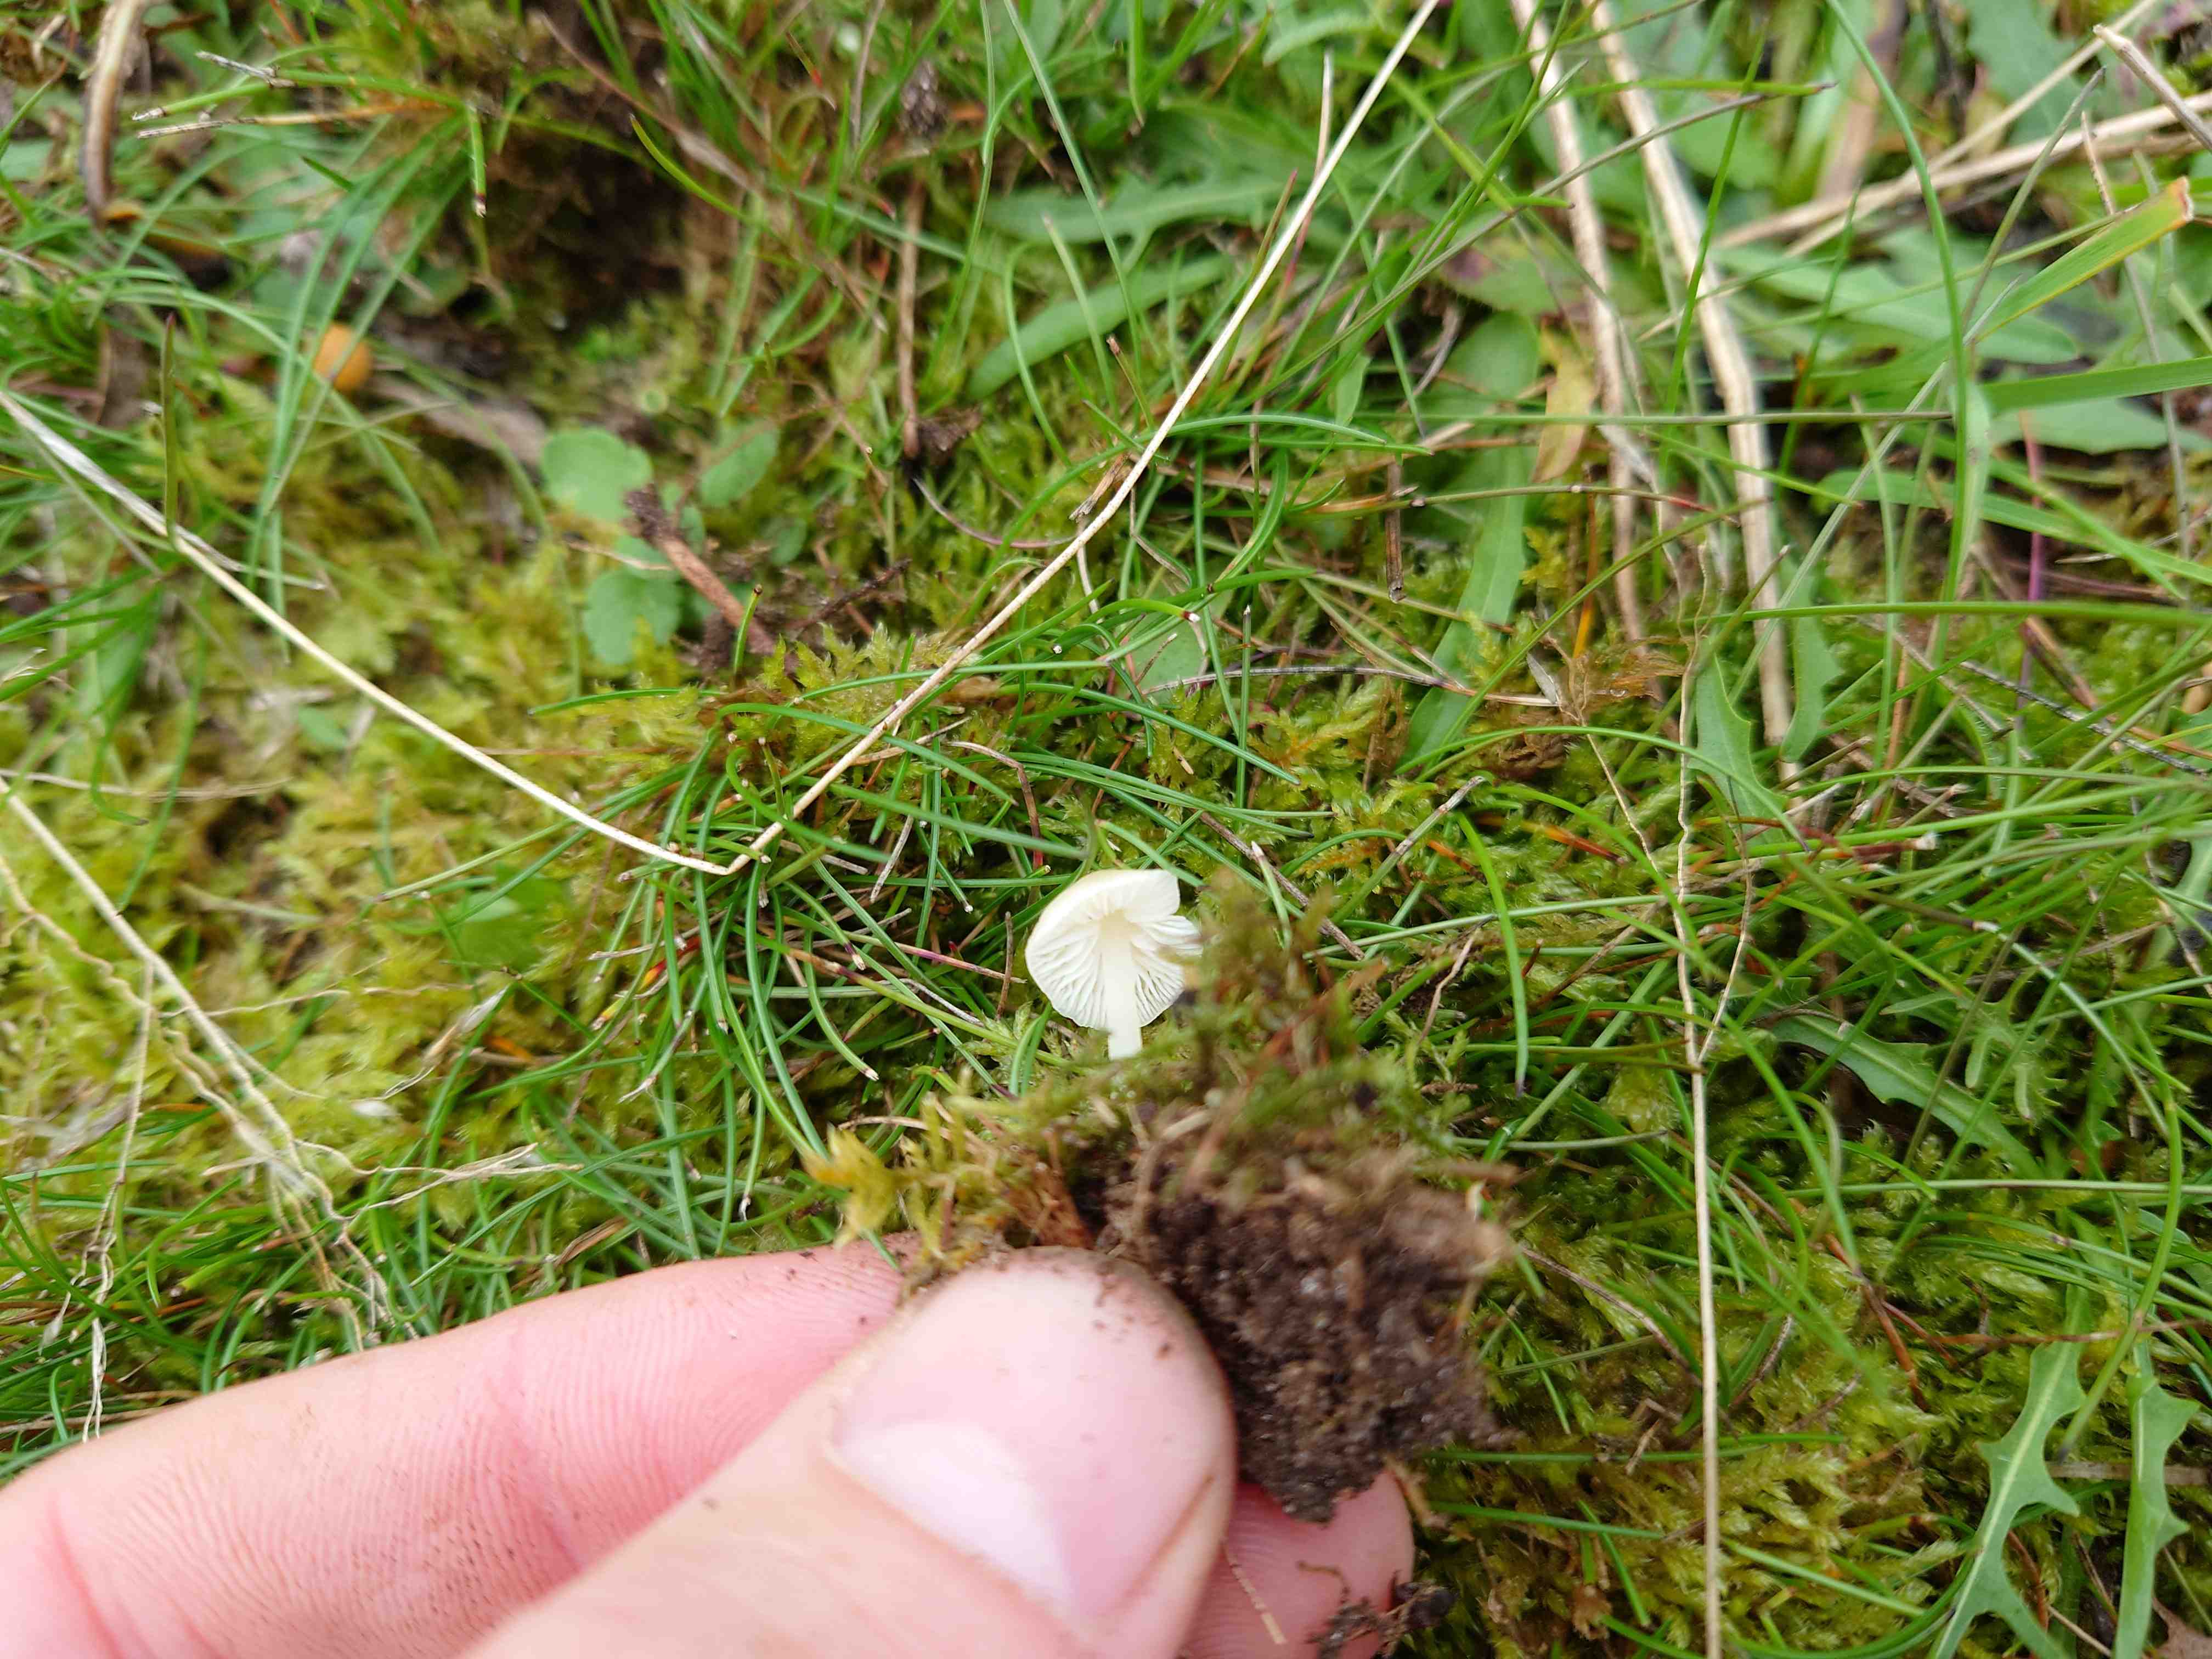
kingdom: Fungi
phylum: Basidiomycota
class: Agaricomycetes
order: Agaricales
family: Mycenaceae
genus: Atheniella
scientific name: Atheniella flavoalba
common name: gulhvid huesvamp
